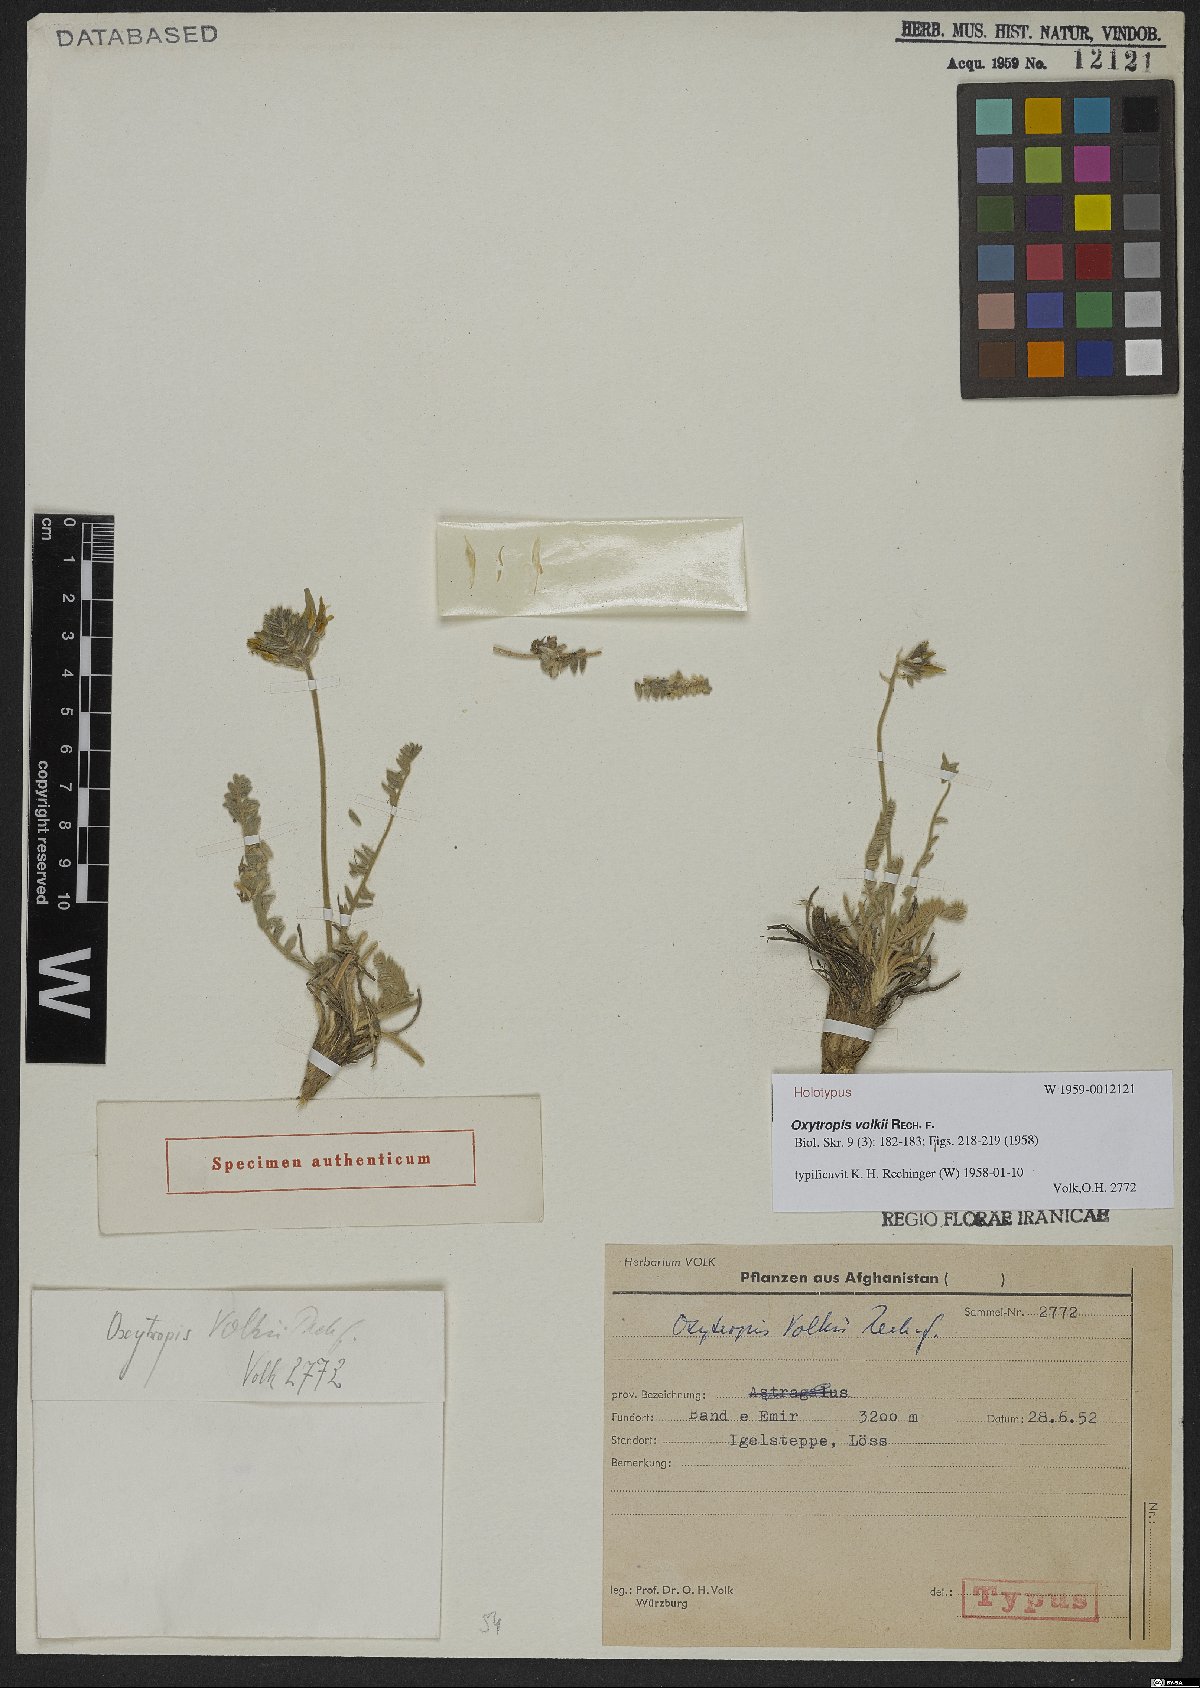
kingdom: Plantae
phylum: Tracheophyta
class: Magnoliopsida
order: Fabales
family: Fabaceae
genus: Oxytropis
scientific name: Oxytropis volkii
